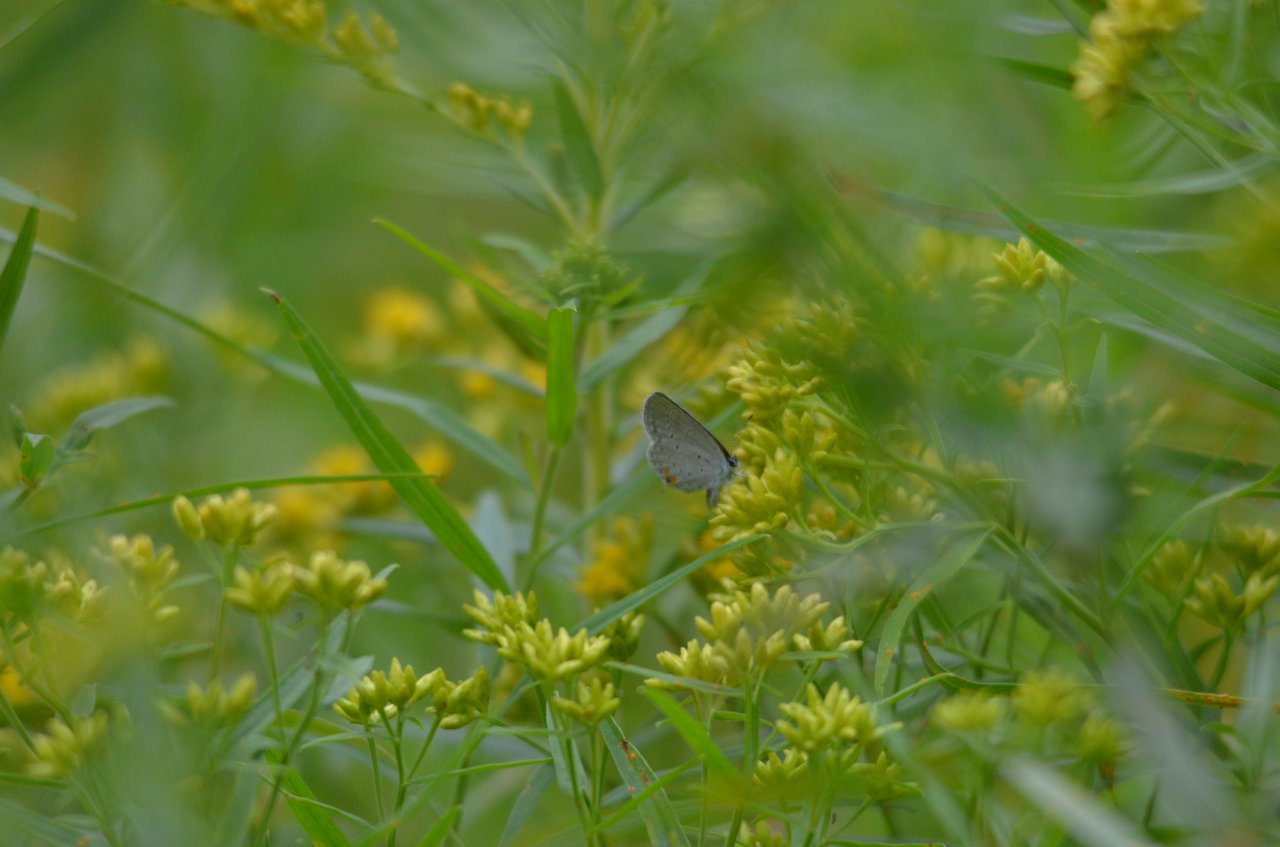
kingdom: Animalia
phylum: Arthropoda
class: Insecta
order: Lepidoptera
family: Lycaenidae
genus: Elkalyce
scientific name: Elkalyce comyntas
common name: Eastern Tailed-Blue
